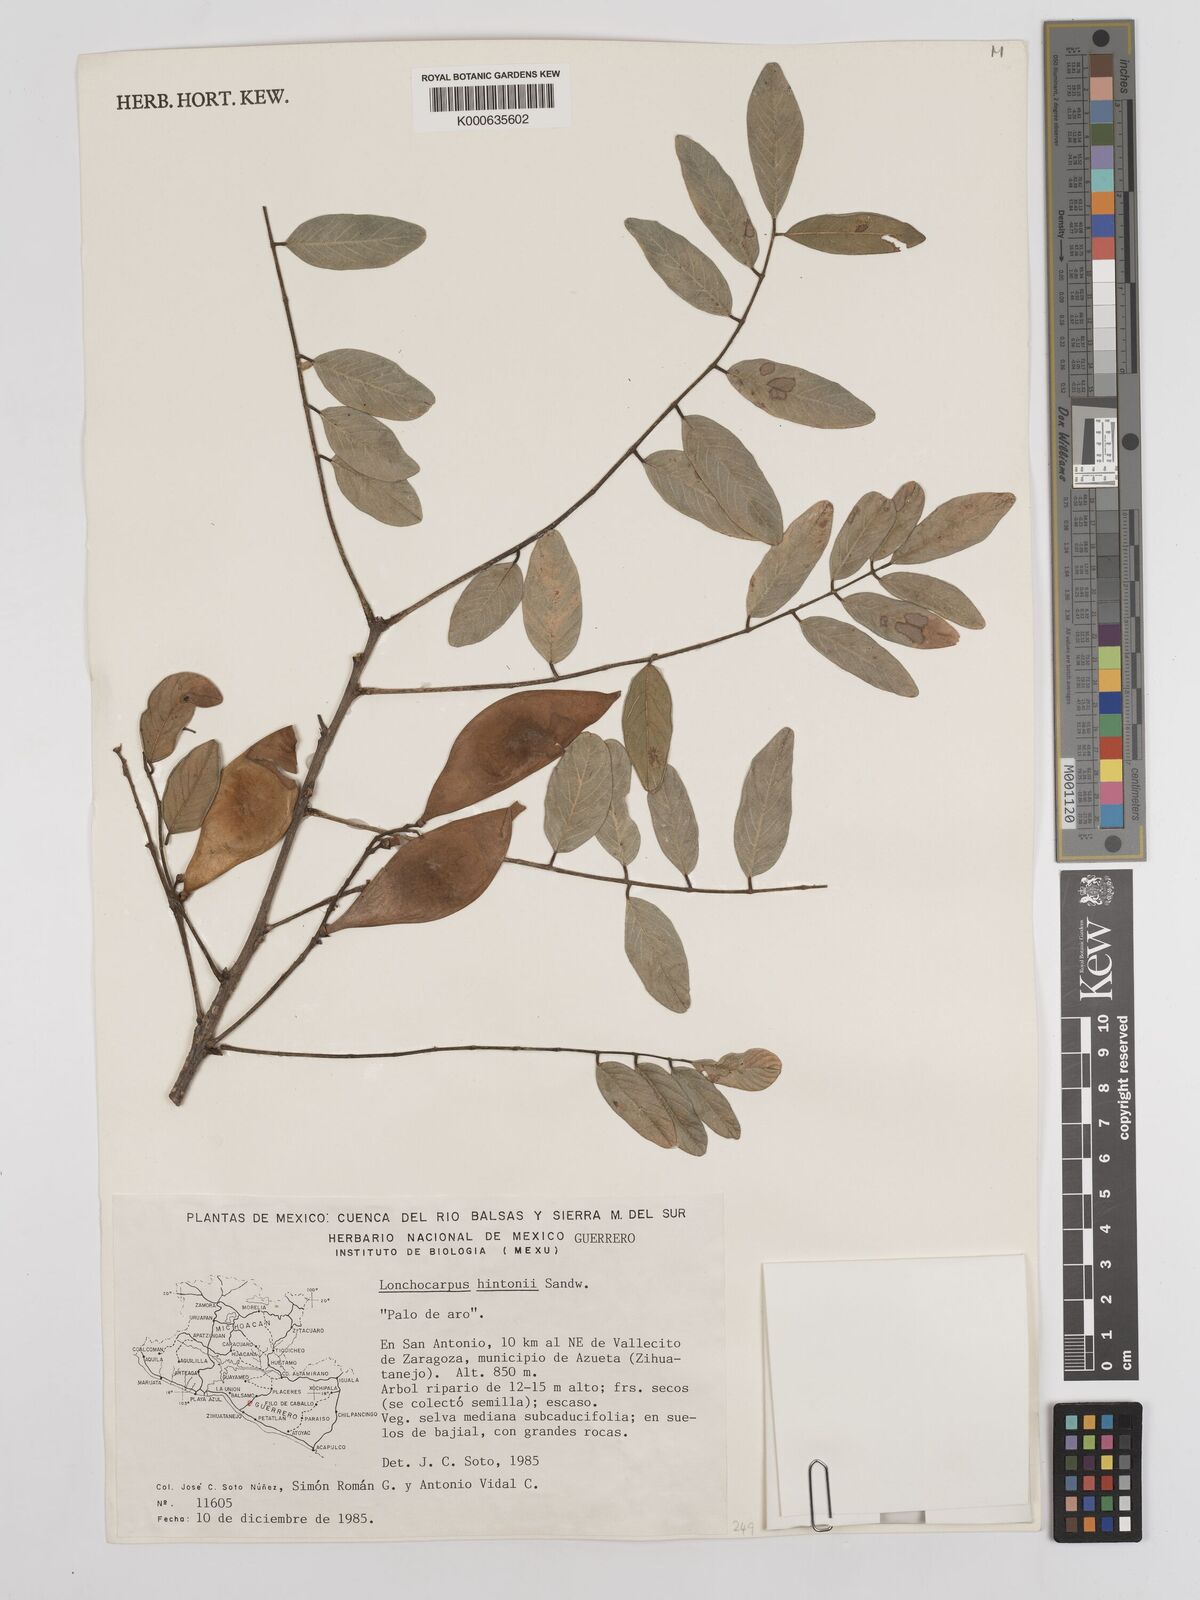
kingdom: Plantae
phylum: Tracheophyta
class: Magnoliopsida
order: Fabales
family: Fabaceae
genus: Lonchocarpus
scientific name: Lonchocarpus hintonii
